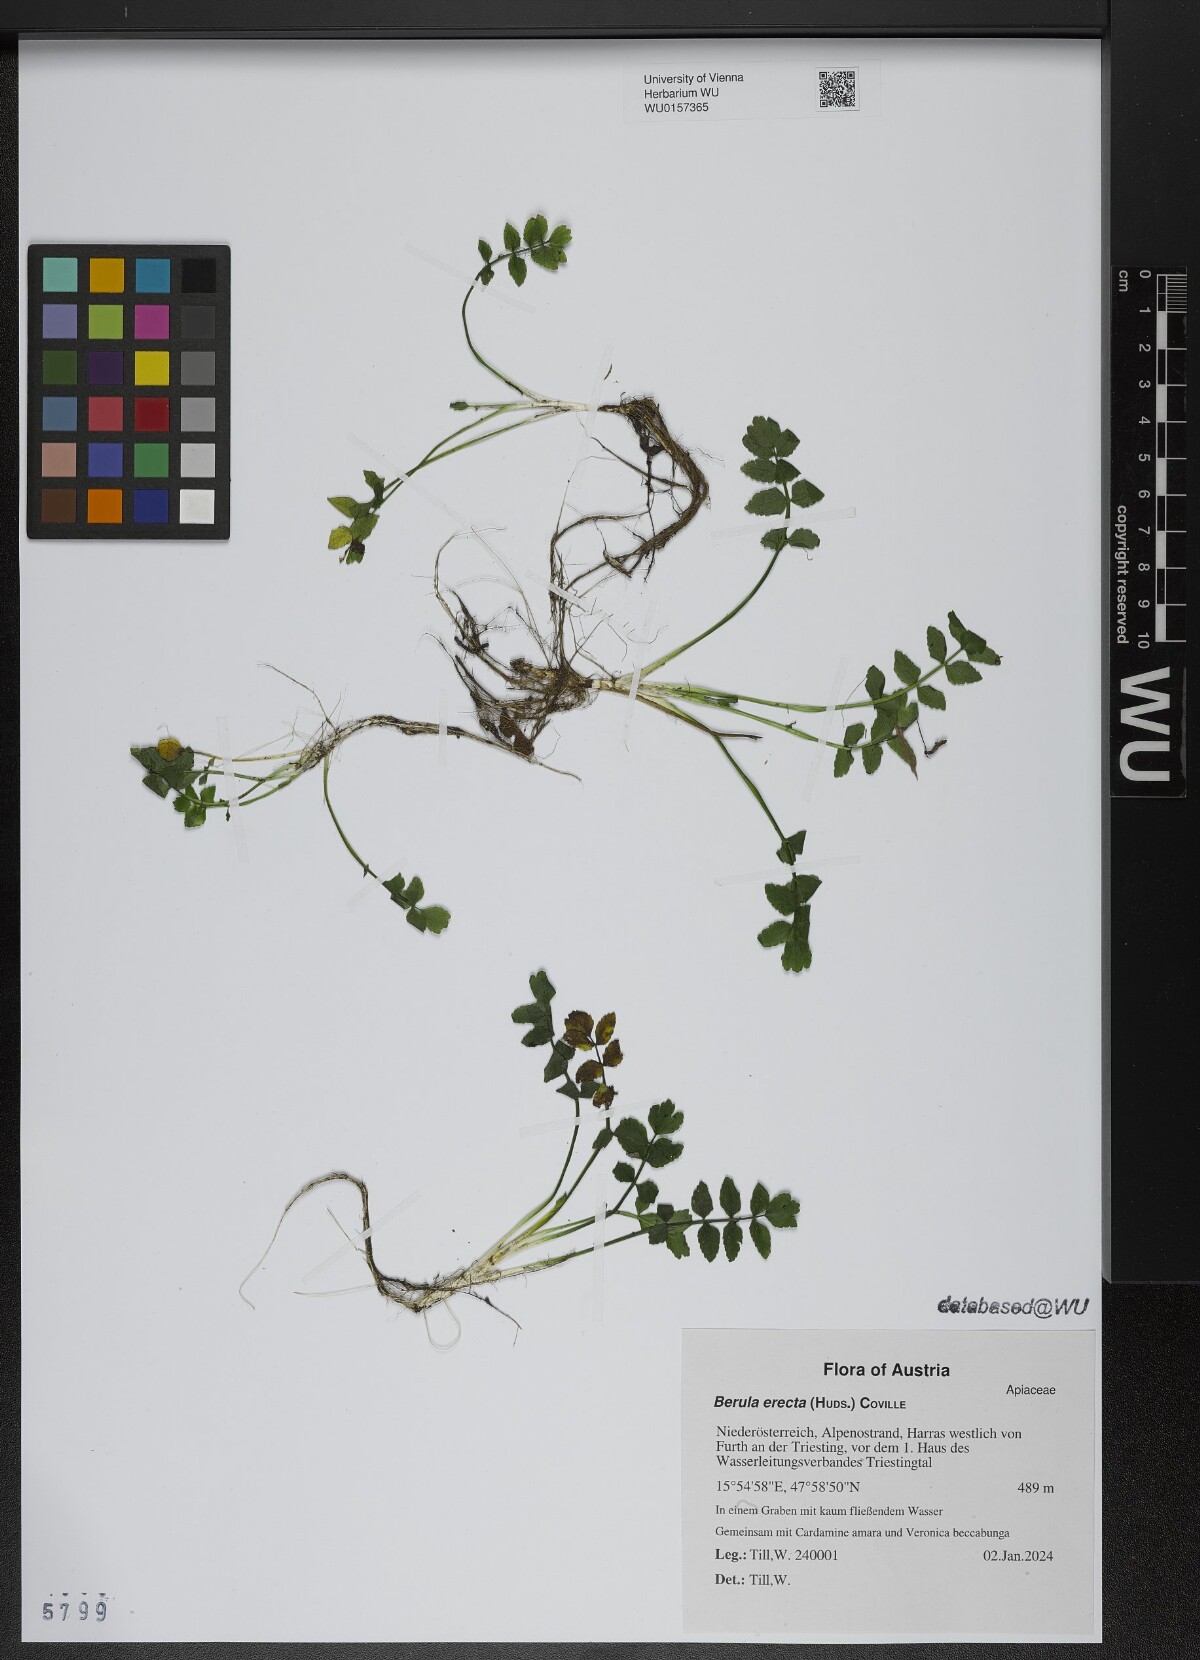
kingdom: Plantae
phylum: Tracheophyta
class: Magnoliopsida
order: Apiales
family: Apiaceae
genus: Berula
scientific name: Berula erecta
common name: Lesser water-parsnip
